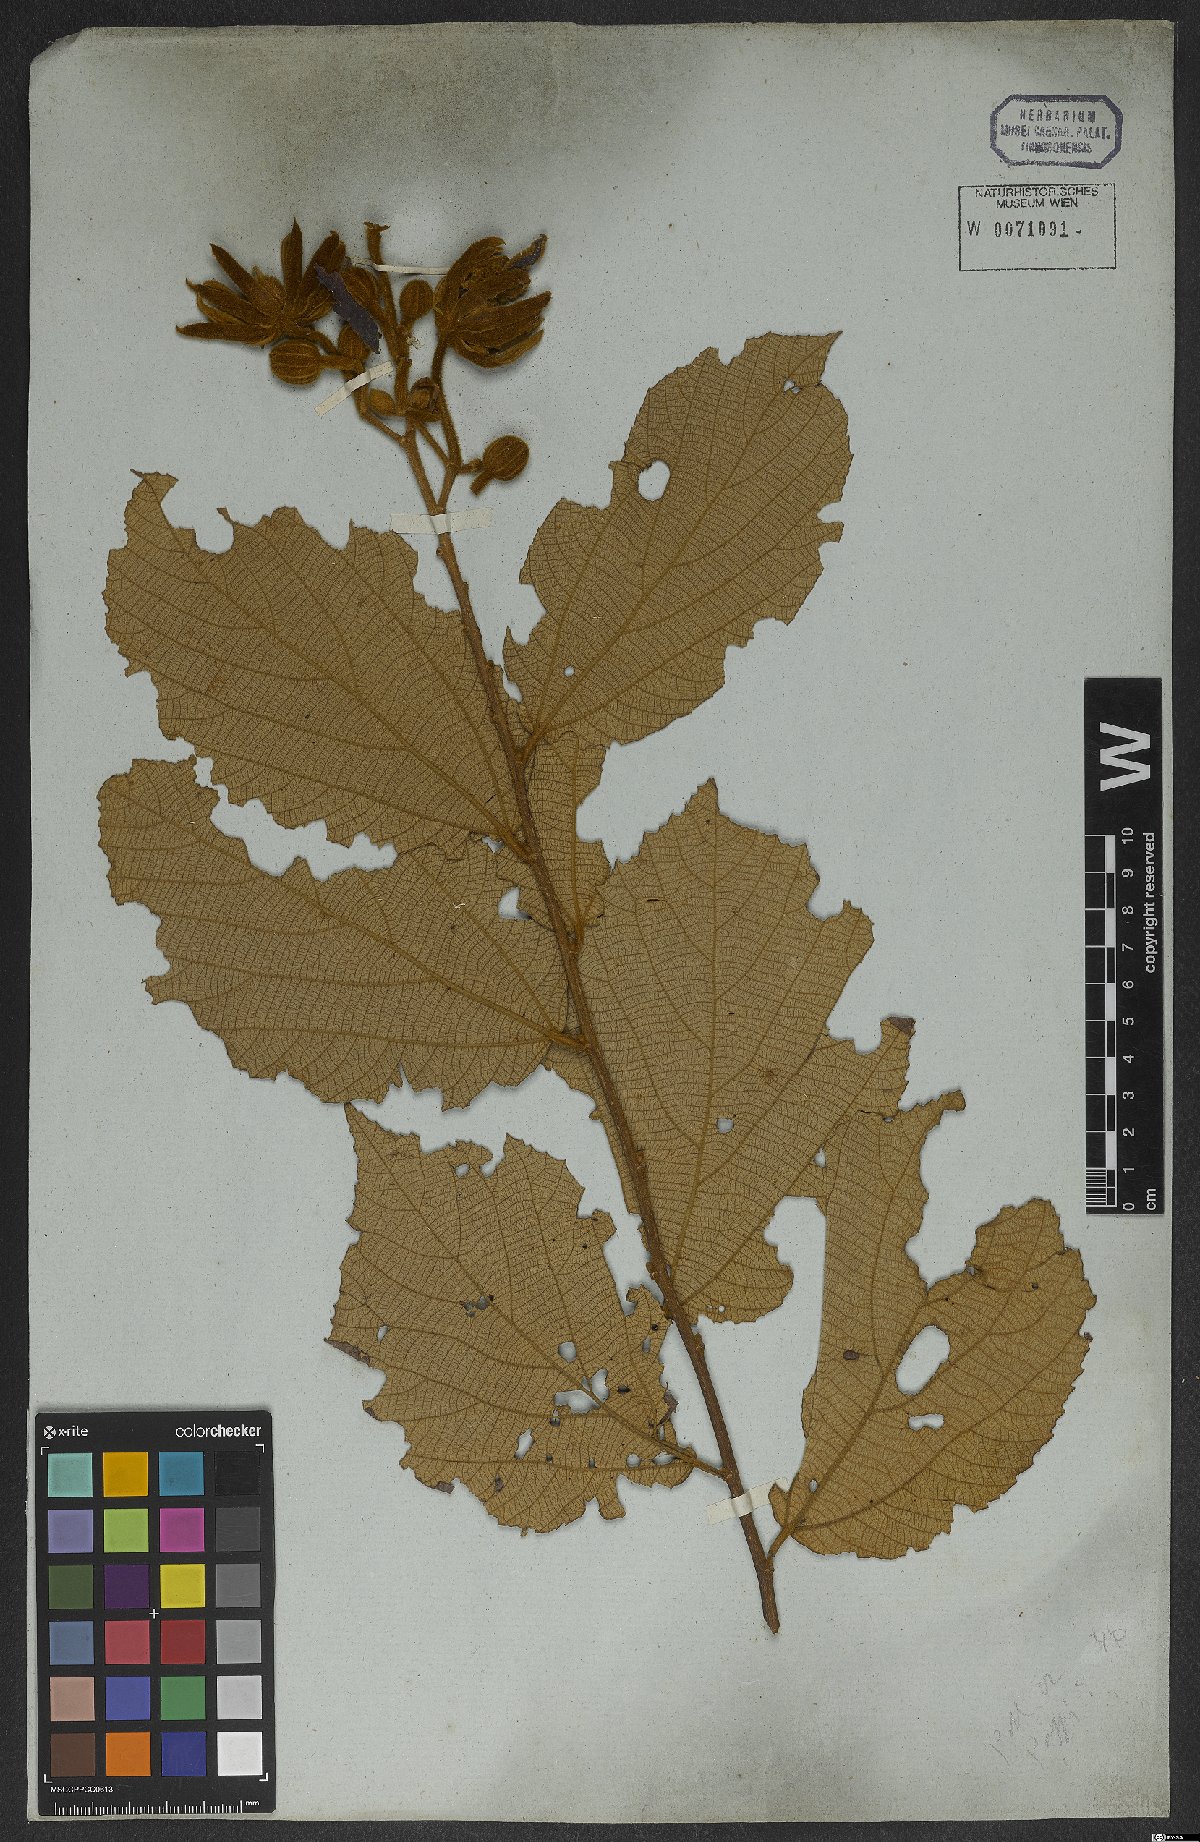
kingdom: Plantae
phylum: Tracheophyta
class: Magnoliopsida
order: Malvales
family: Malvaceae
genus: Luehea
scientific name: Luehea grandiflora
